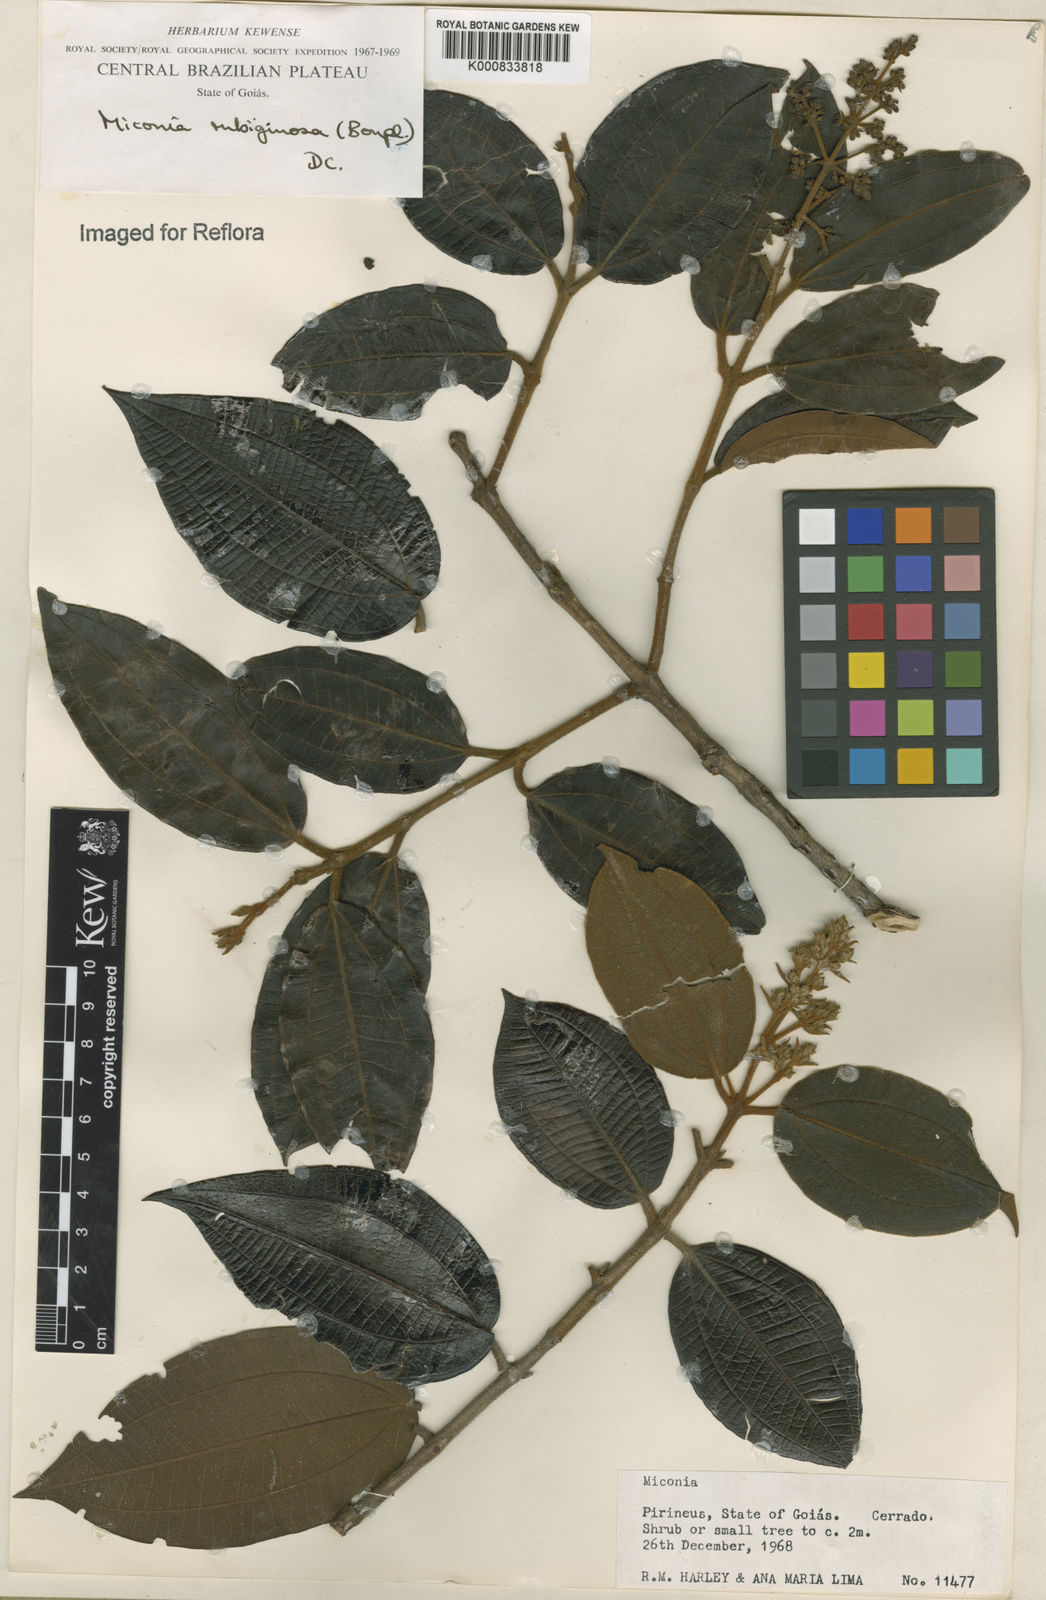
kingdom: Plantae
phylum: Tracheophyta
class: Magnoliopsida
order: Myrtales
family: Melastomataceae
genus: Miconia
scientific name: Miconia rubiginosa
